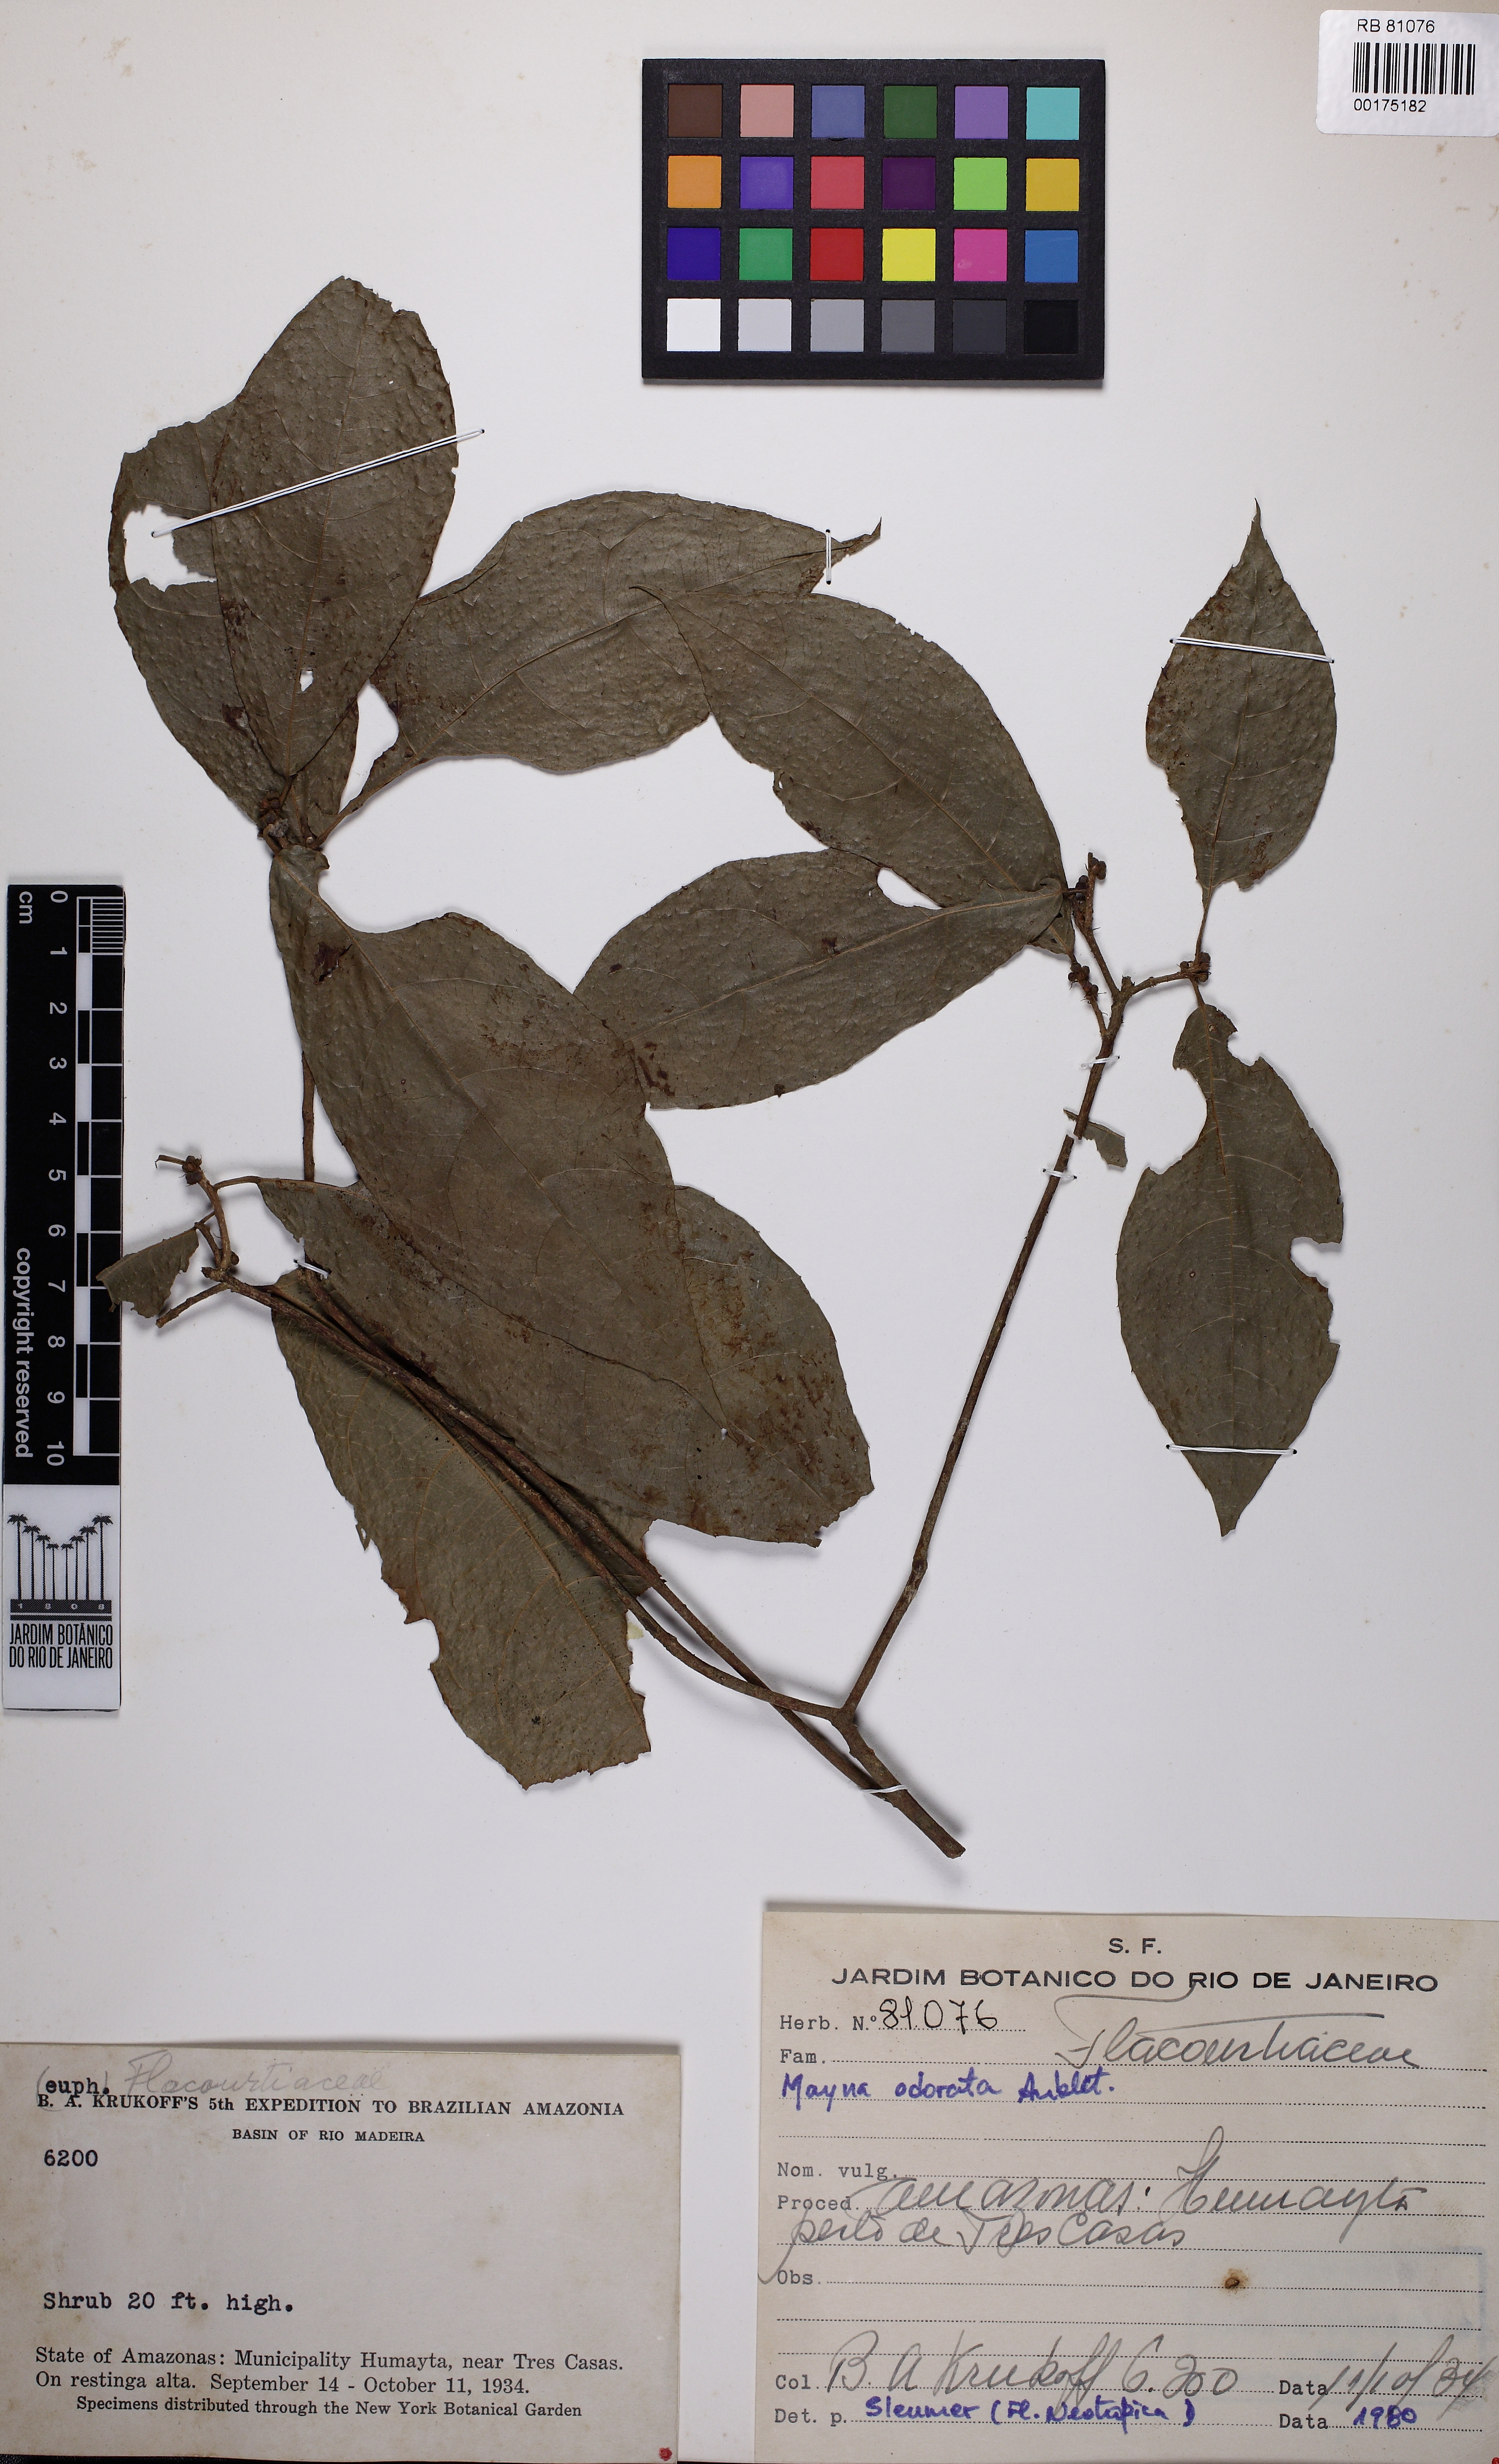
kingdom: Plantae
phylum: Tracheophyta
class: Magnoliopsida
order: Malpighiales
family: Achariaceae
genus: Mayna
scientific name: Mayna odorata
